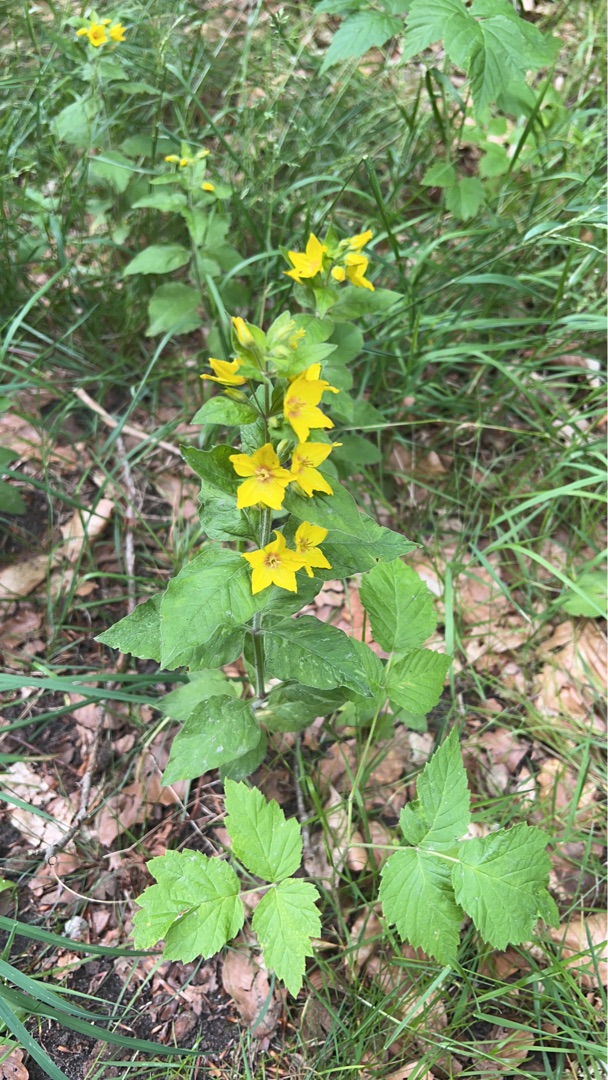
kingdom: Plantae
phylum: Tracheophyta
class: Magnoliopsida
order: Ericales
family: Primulaceae
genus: Lysimachia
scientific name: Lysimachia punctata
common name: Prikbladet fredløs
